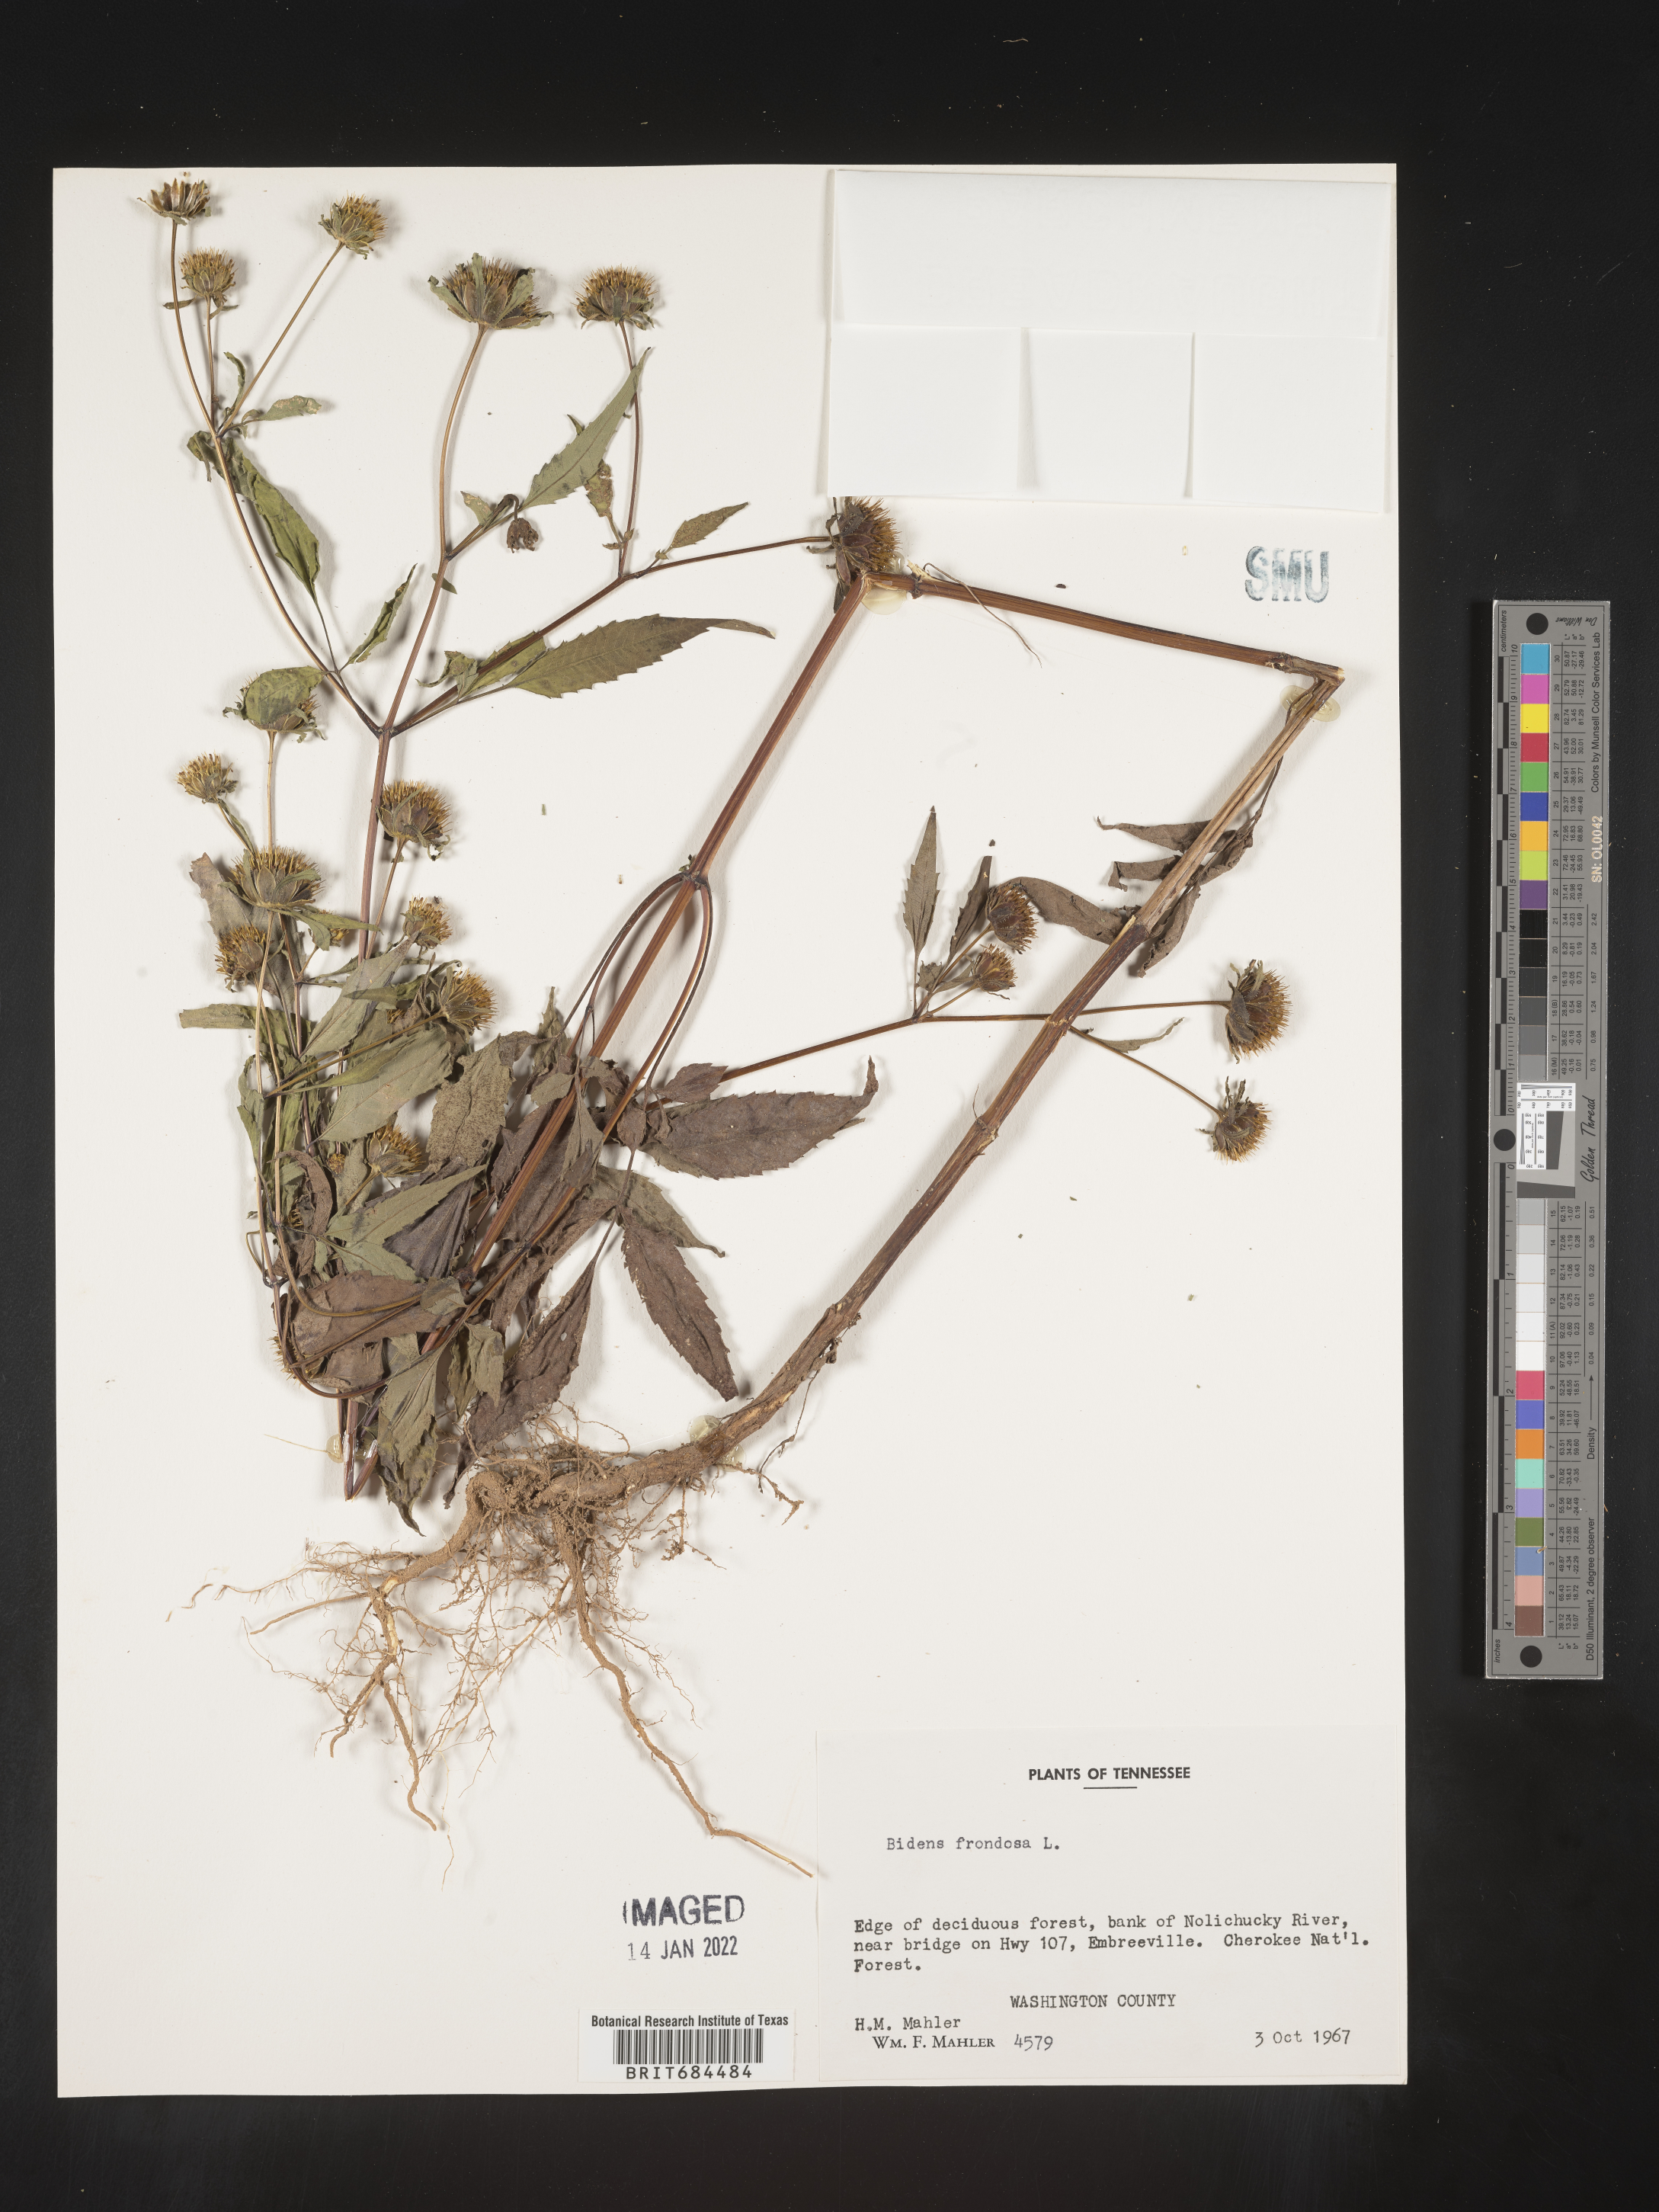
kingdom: Plantae
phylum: Tracheophyta
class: Magnoliopsida
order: Asterales
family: Asteraceae
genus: Bidens
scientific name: Bidens frondosa
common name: Beggarticks
